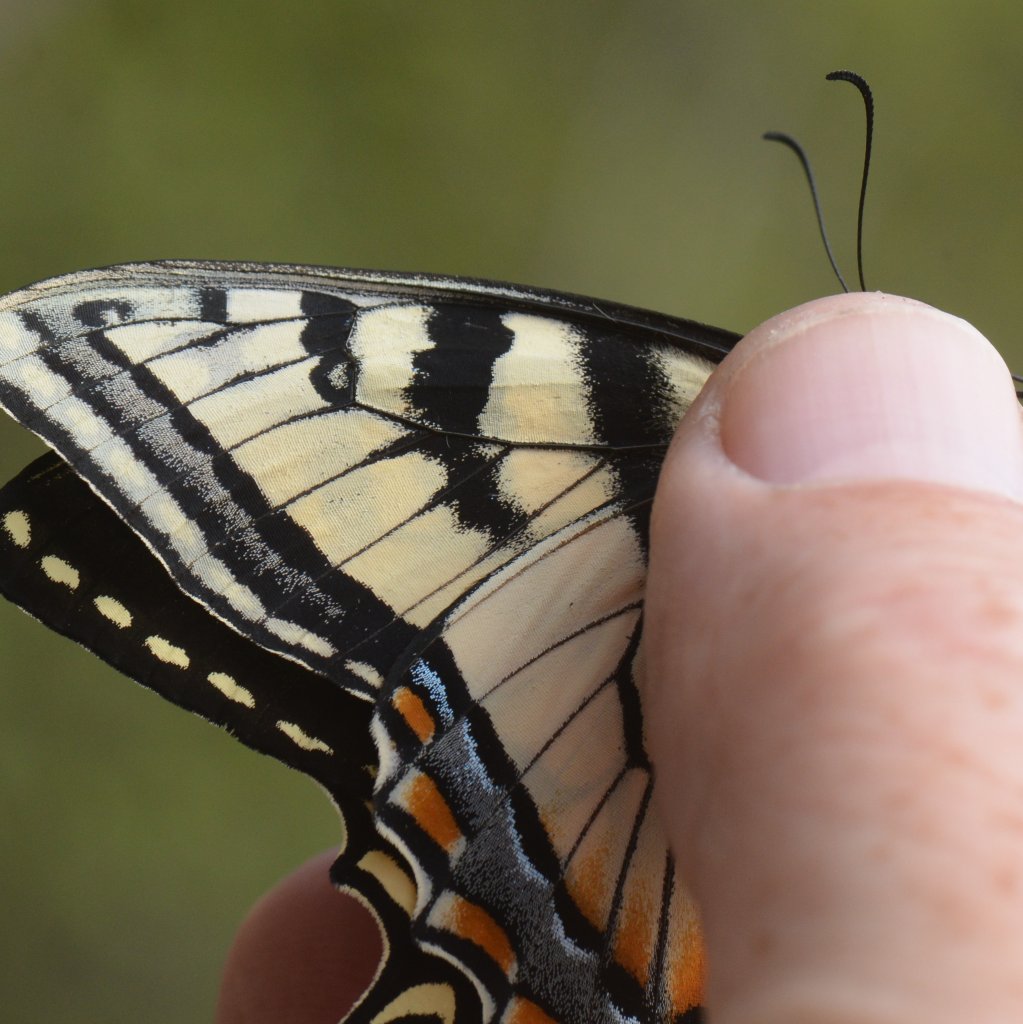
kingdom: Animalia
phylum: Arthropoda
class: Insecta
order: Lepidoptera
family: Papilionidae
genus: Pterourus
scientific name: Pterourus canadensis
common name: Canadian Tiger Swallowtail
